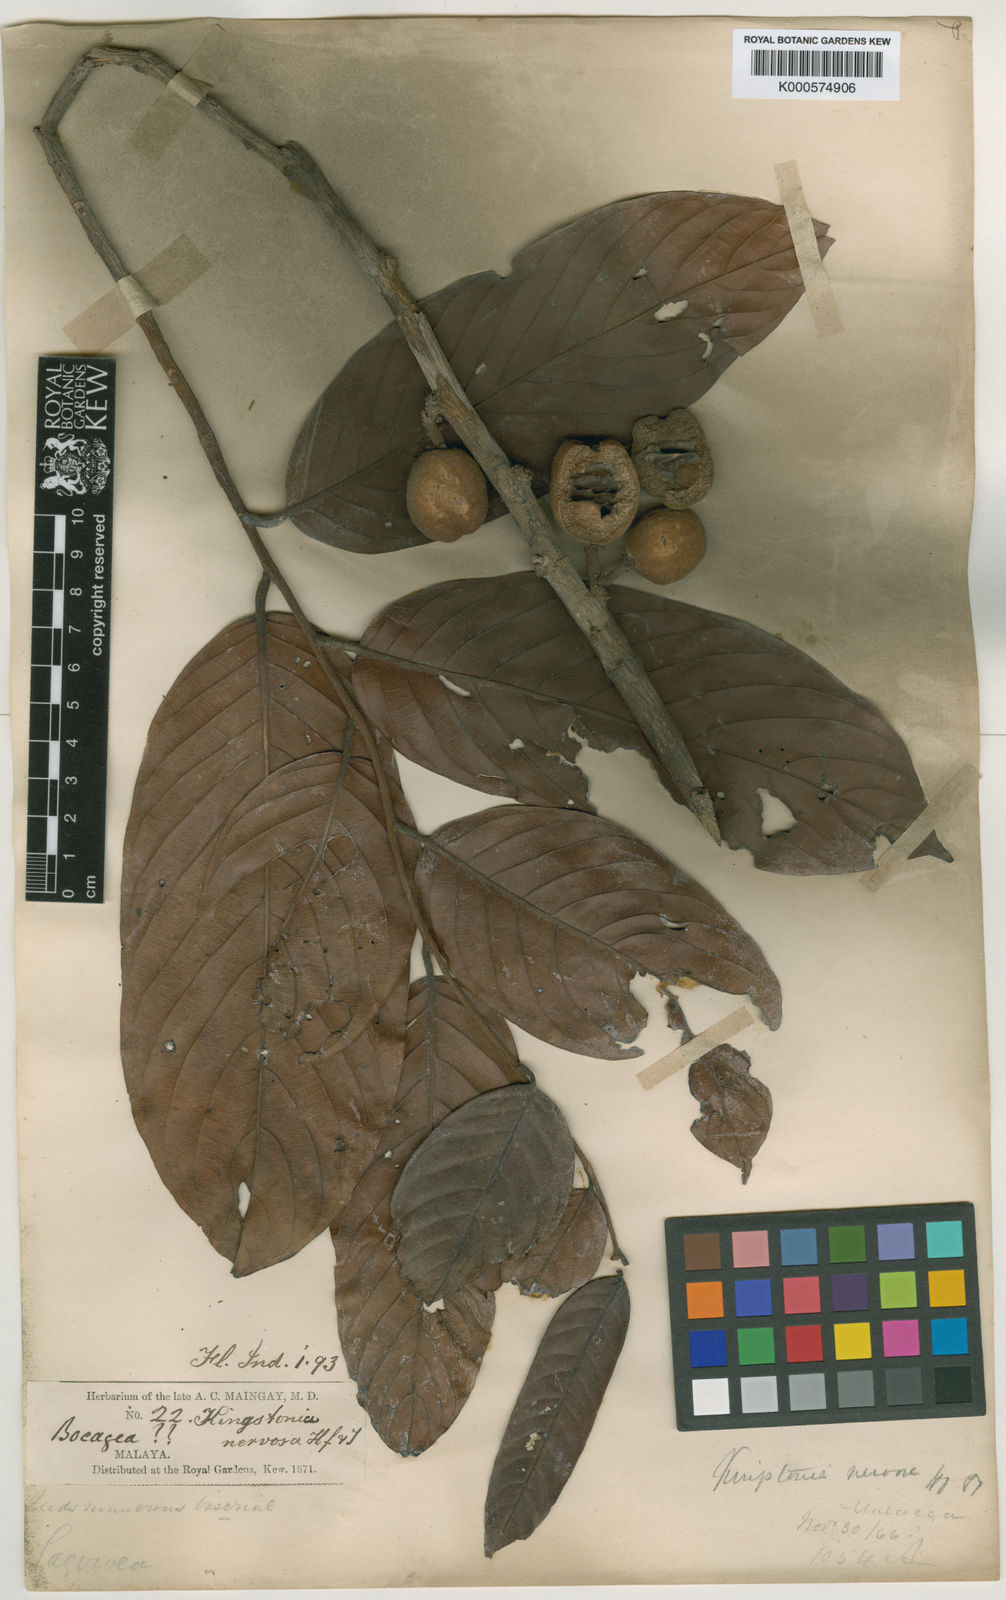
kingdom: Plantae
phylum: Tracheophyta
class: Magnoliopsida
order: Magnoliales
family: Annonaceae
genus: Dendrokingstonia
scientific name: Dendrokingstonia nervosa
